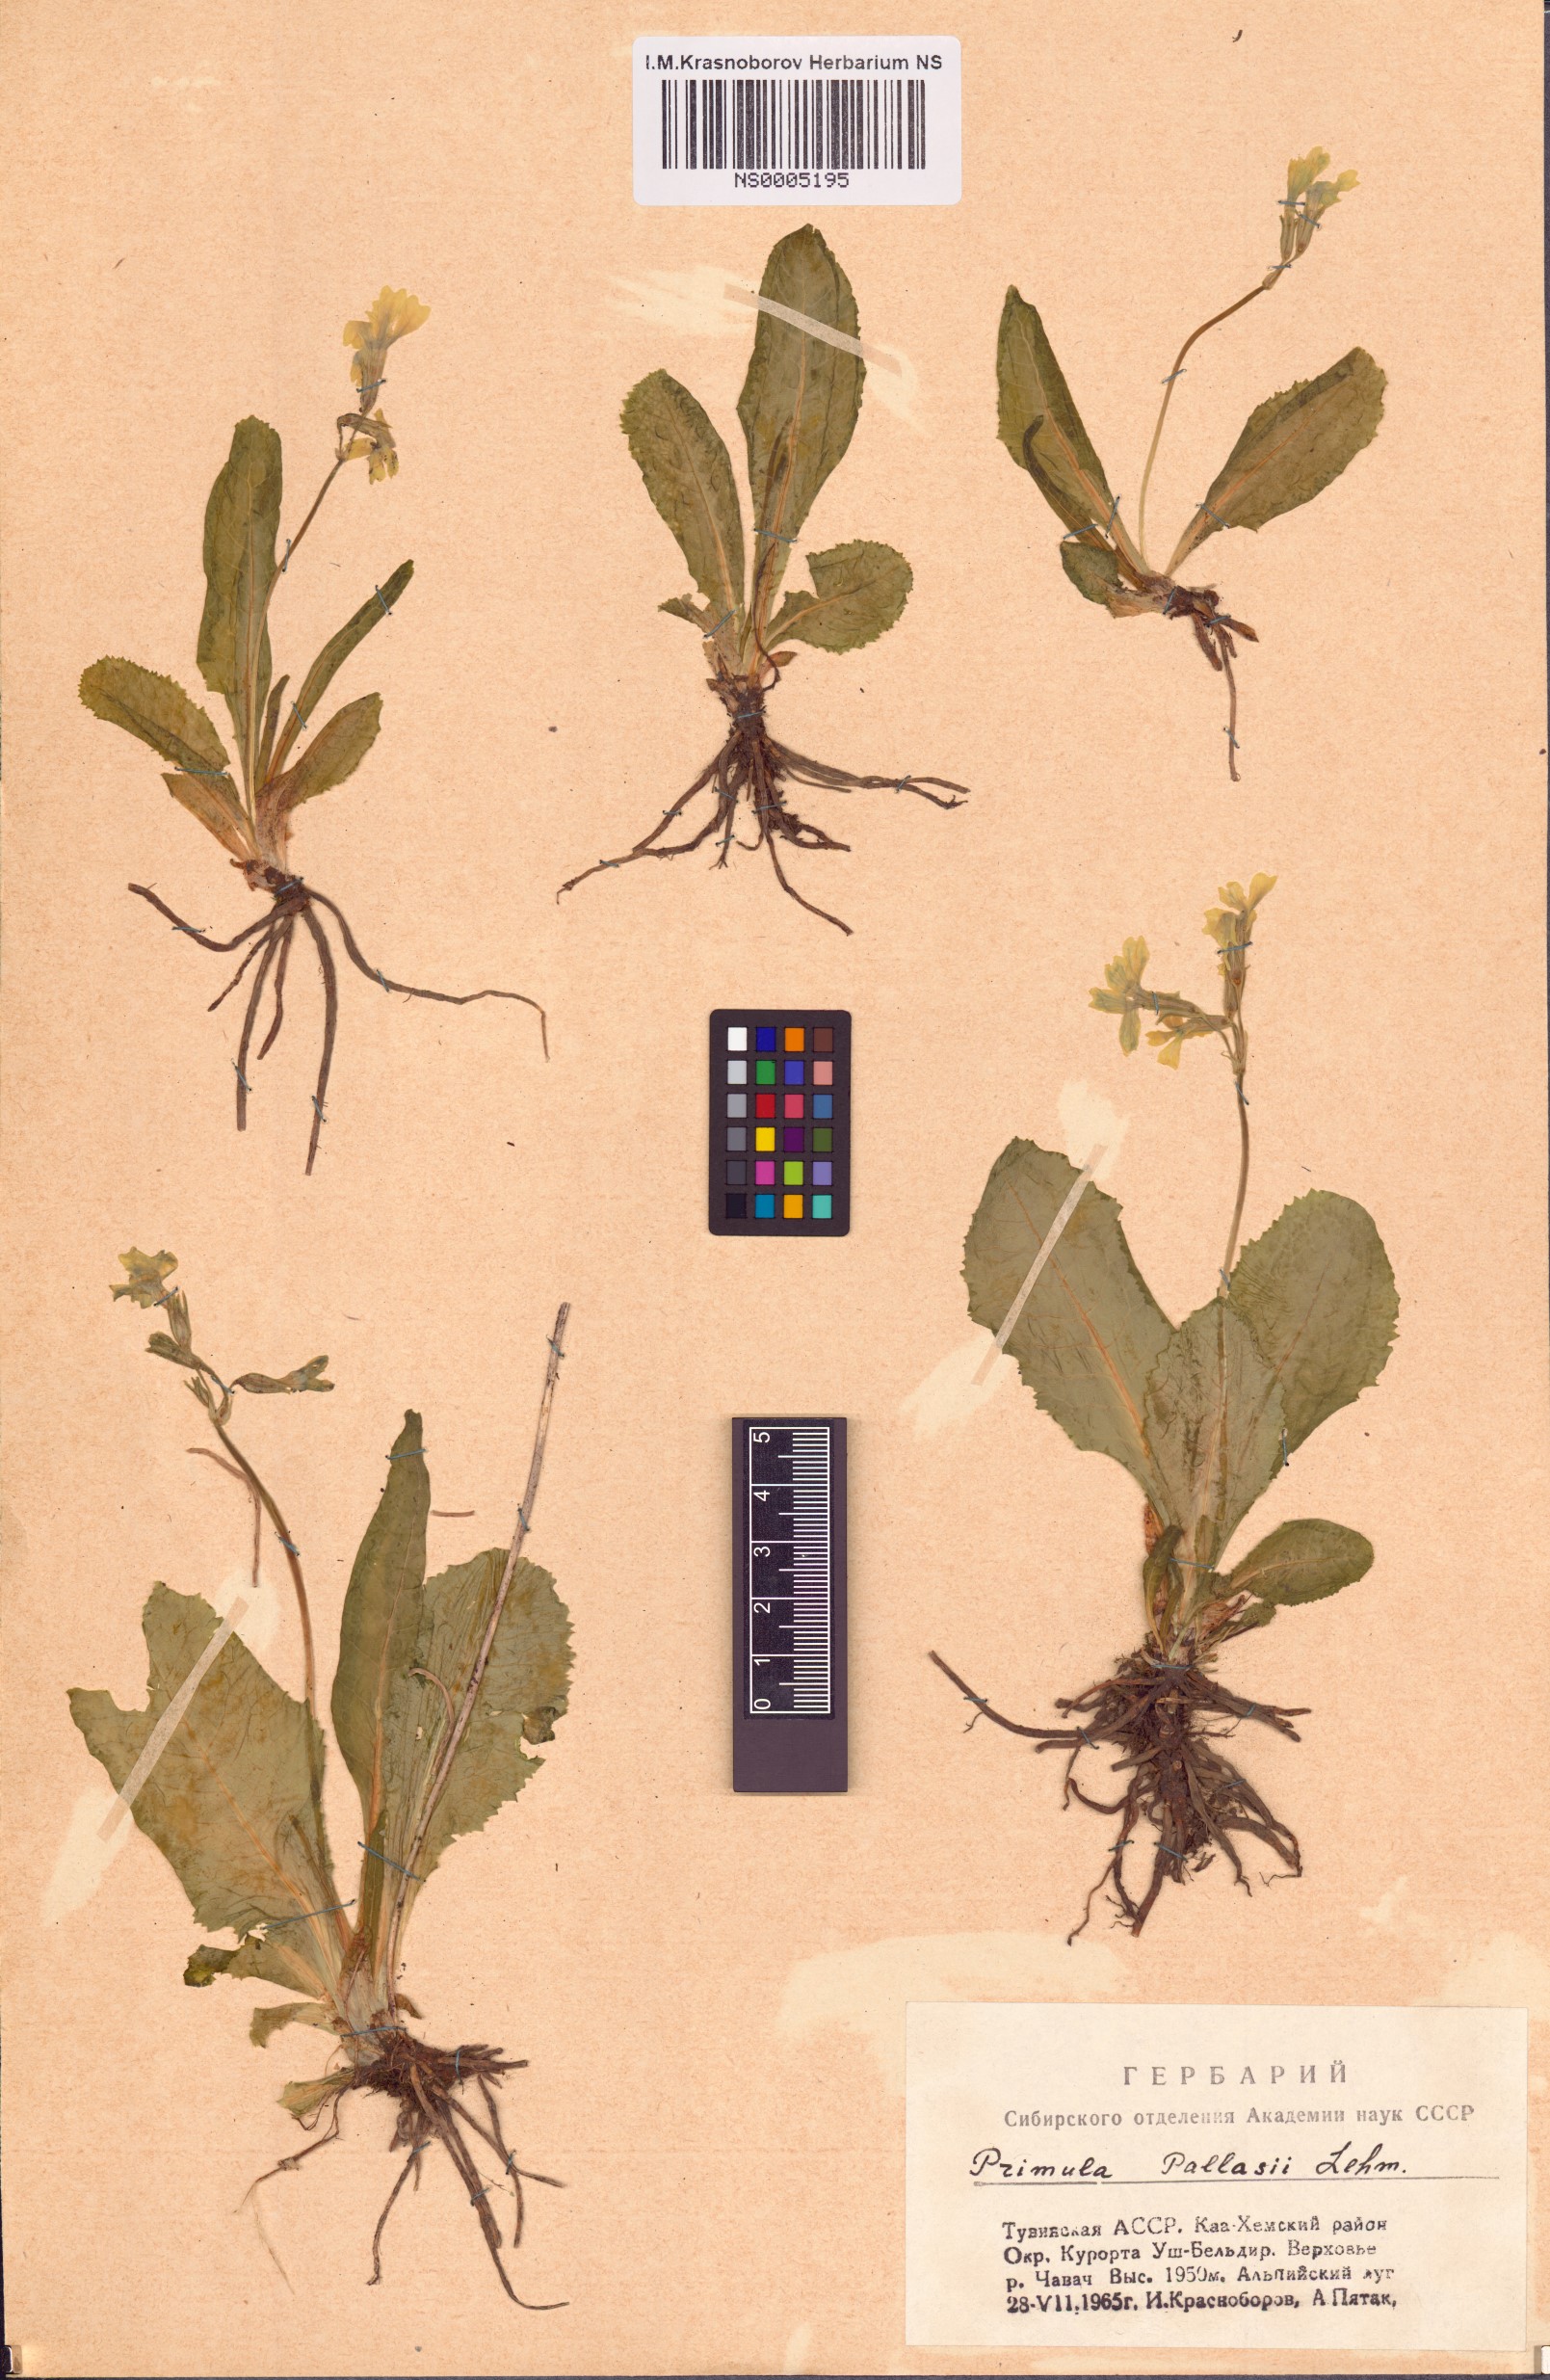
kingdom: Plantae
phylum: Tracheophyta
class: Magnoliopsida
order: Ericales
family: Primulaceae
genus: Primula
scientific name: Primula elatior
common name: Oxlip
